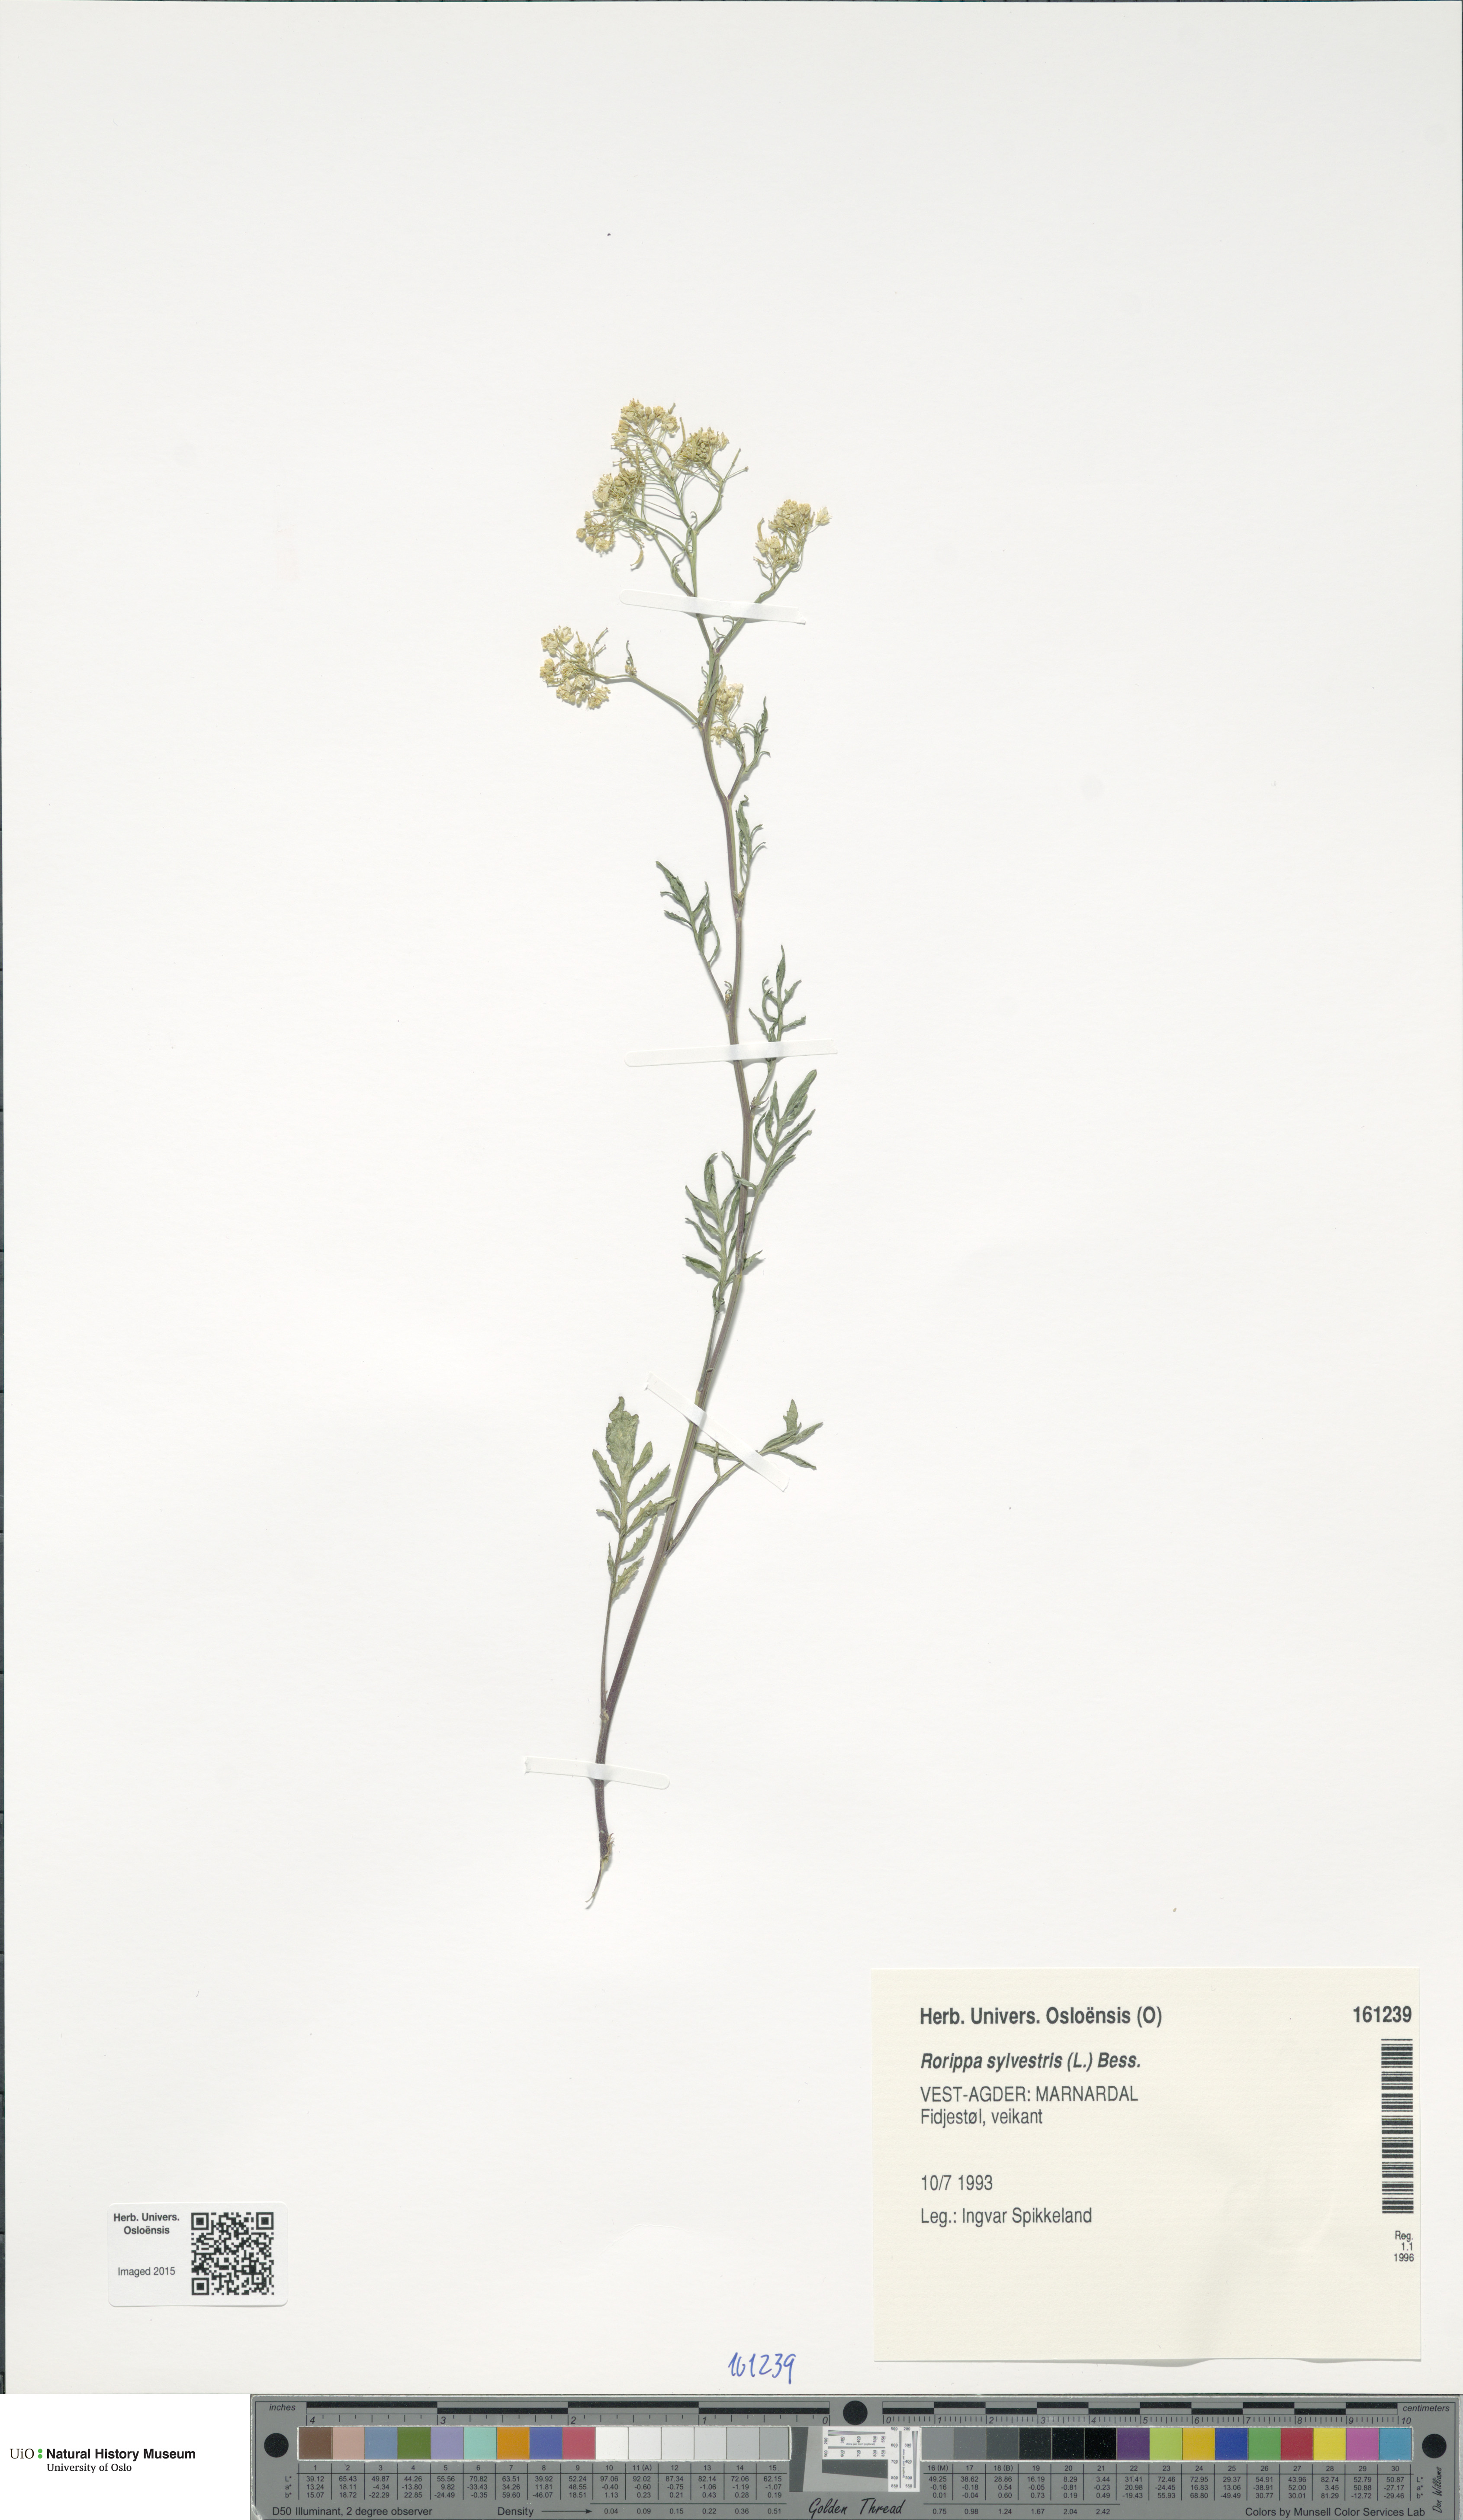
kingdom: Plantae
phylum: Tracheophyta
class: Magnoliopsida
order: Brassicales
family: Brassicaceae
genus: Rorippa
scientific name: Rorippa sylvestris
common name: Creeping yellowcress
